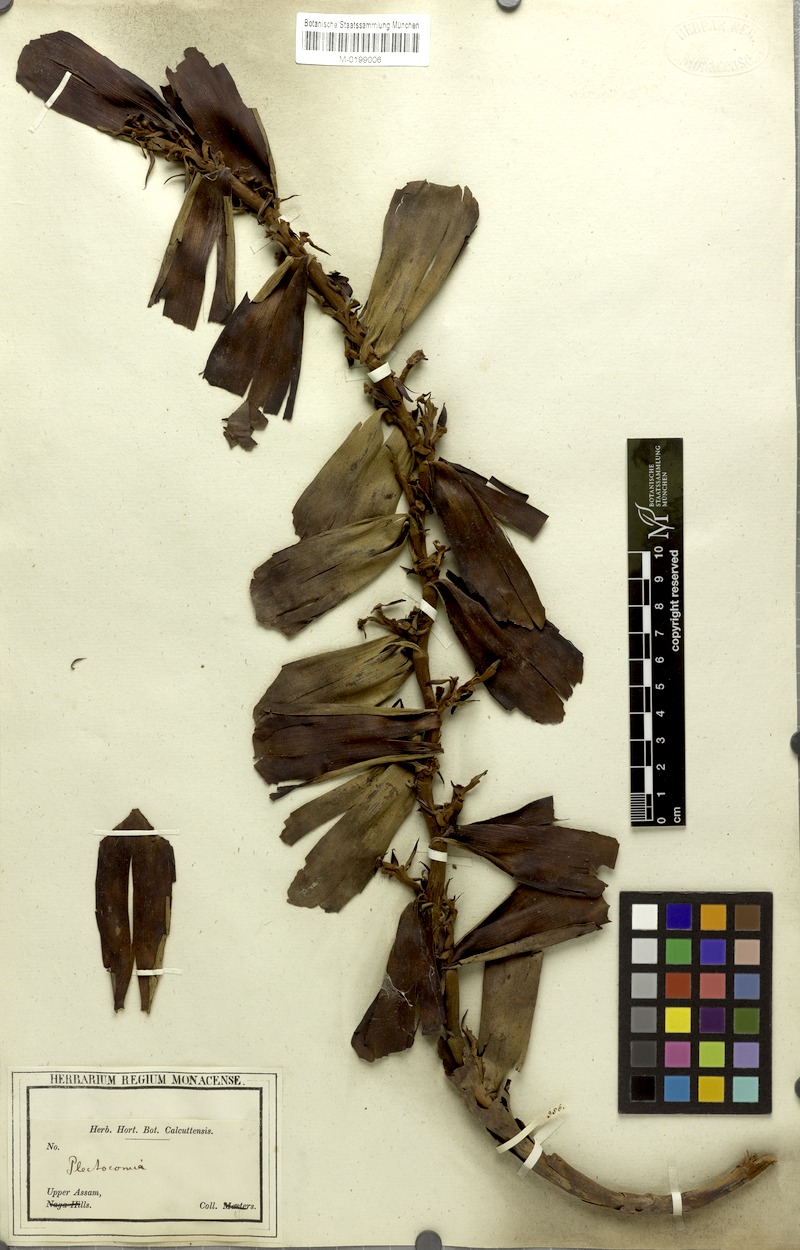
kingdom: Plantae
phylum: Tracheophyta
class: Liliopsida
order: Arecales
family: Arecaceae
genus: Plectocomia
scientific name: Plectocomia
